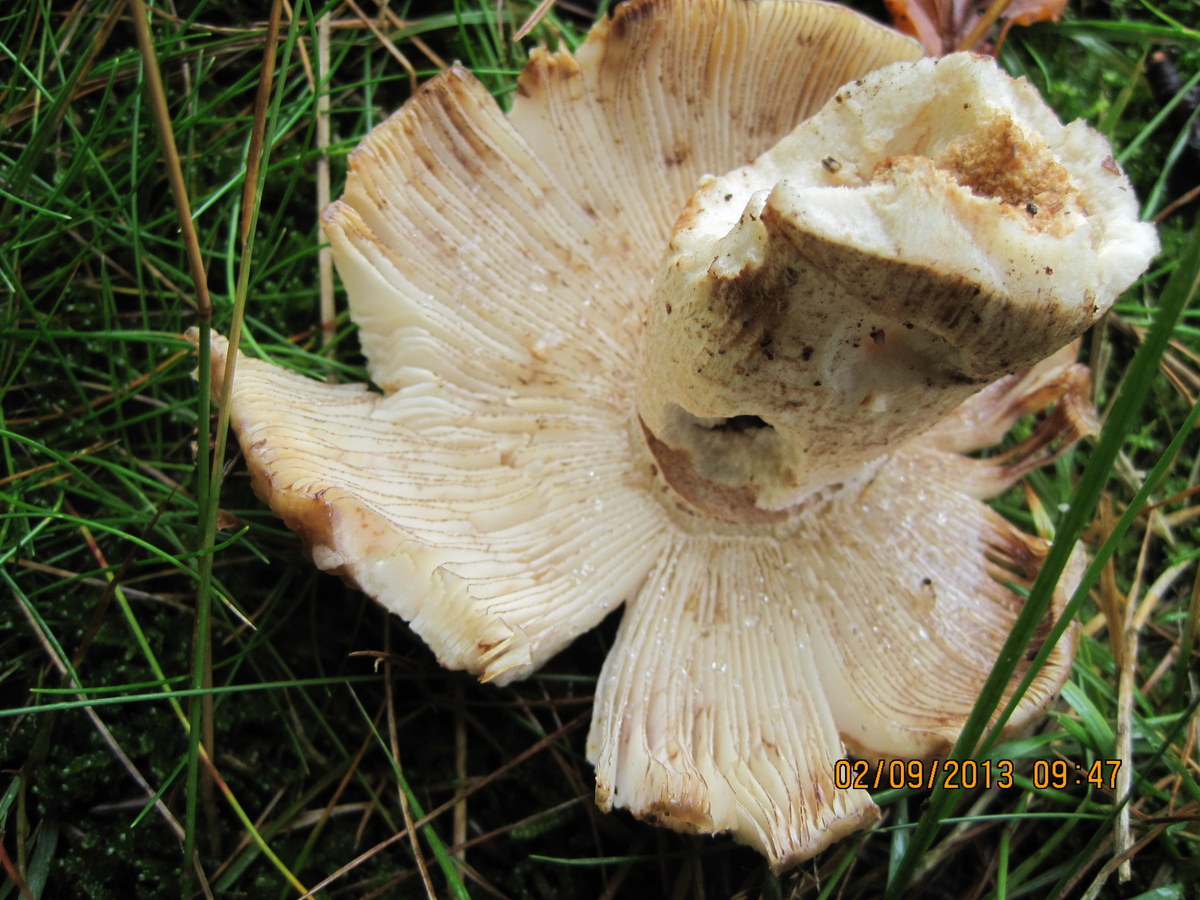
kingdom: Fungi
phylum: Basidiomycota
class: Agaricomycetes
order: Russulales
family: Russulaceae
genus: Russula
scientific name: Russula illota
